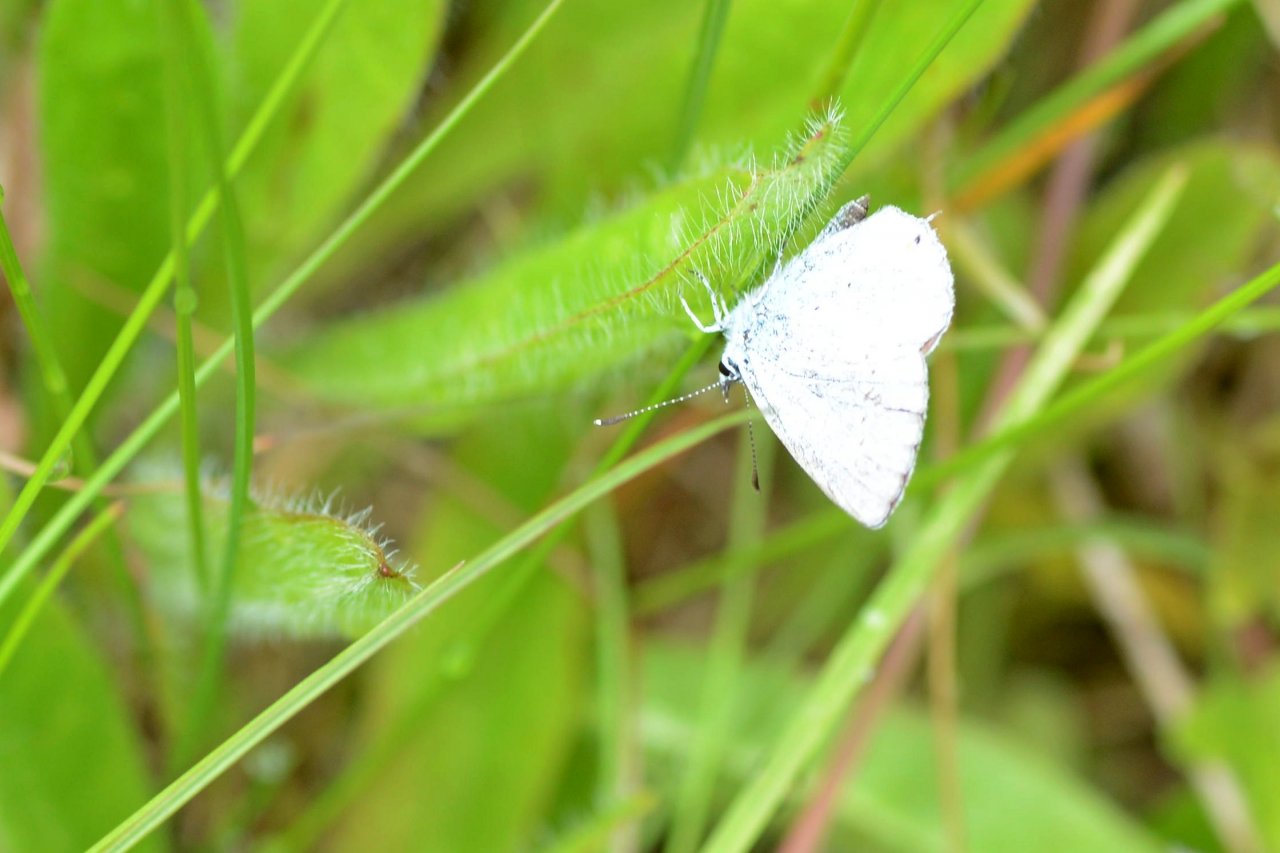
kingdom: Animalia
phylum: Arthropoda
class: Insecta
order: Lepidoptera
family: Lycaenidae
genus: Elkalyce
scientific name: Elkalyce amyntula
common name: Western Tailed-Blue
